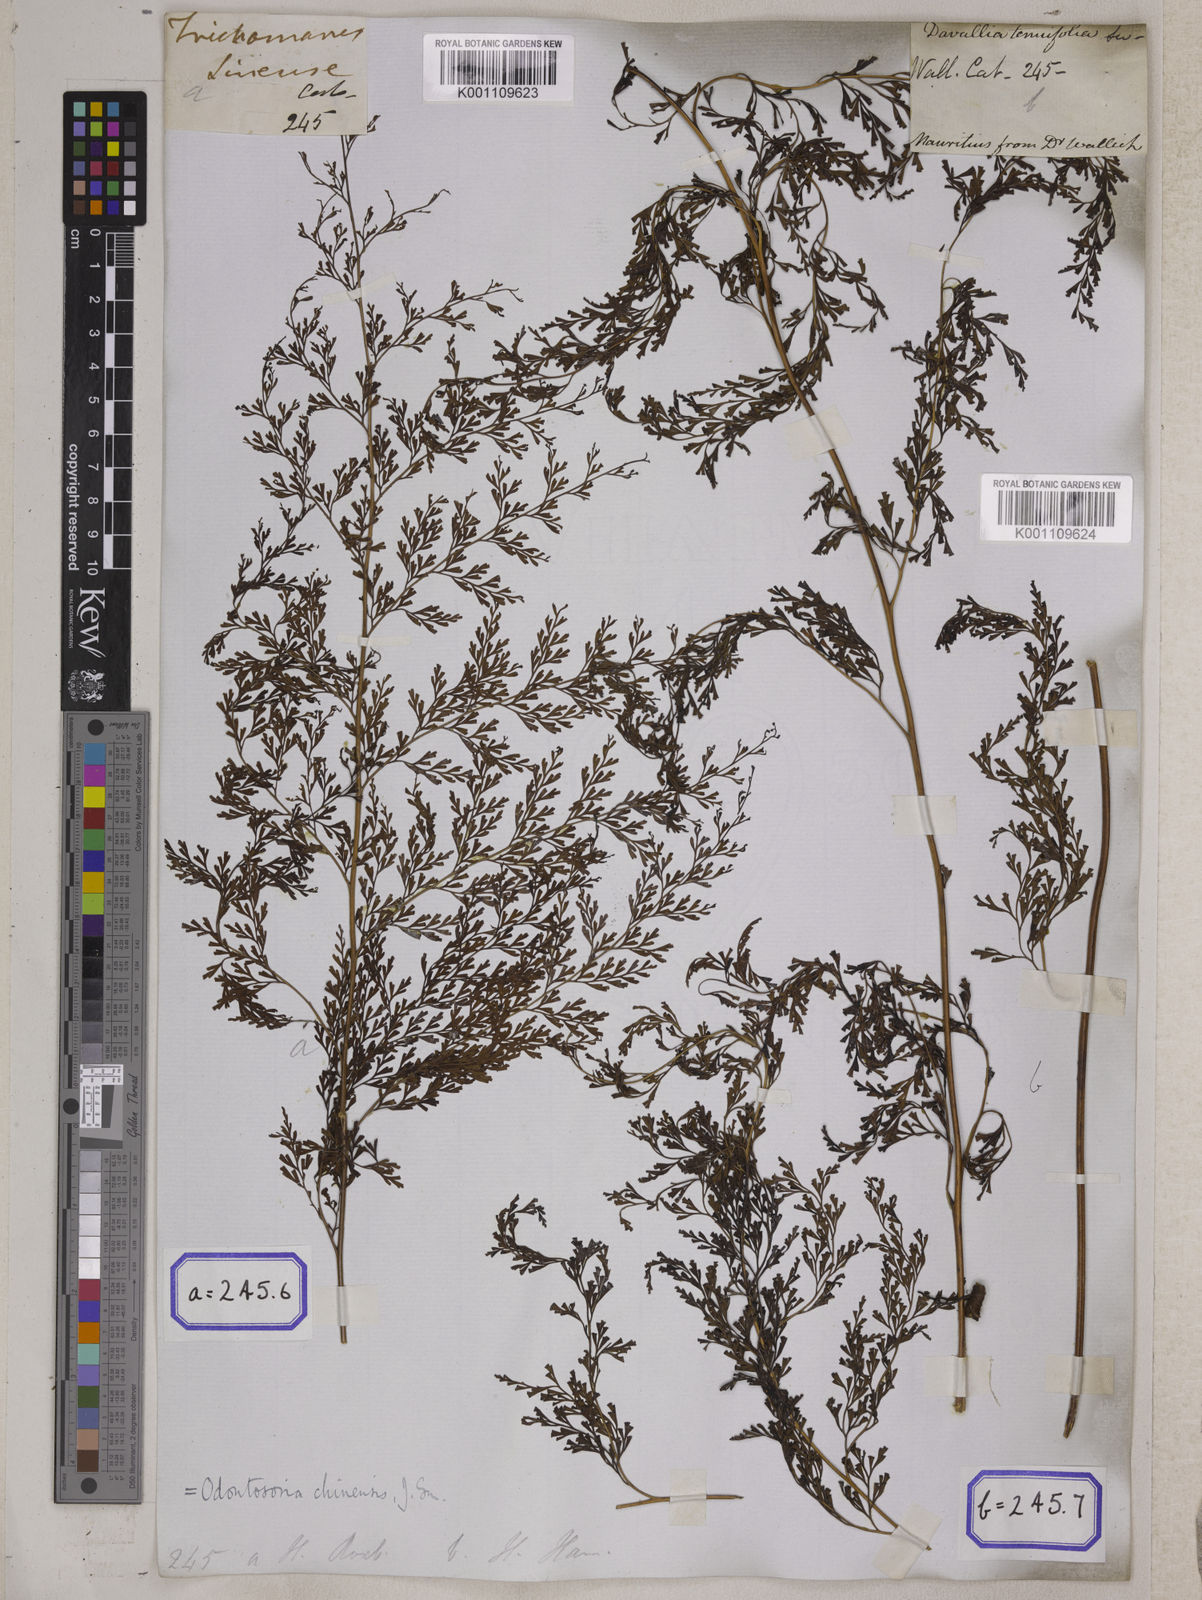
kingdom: Plantae
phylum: Tracheophyta
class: Polypodiopsida
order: Polypodiales
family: Lindsaeaceae
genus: Odontosoria
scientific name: Odontosoria chinensis
